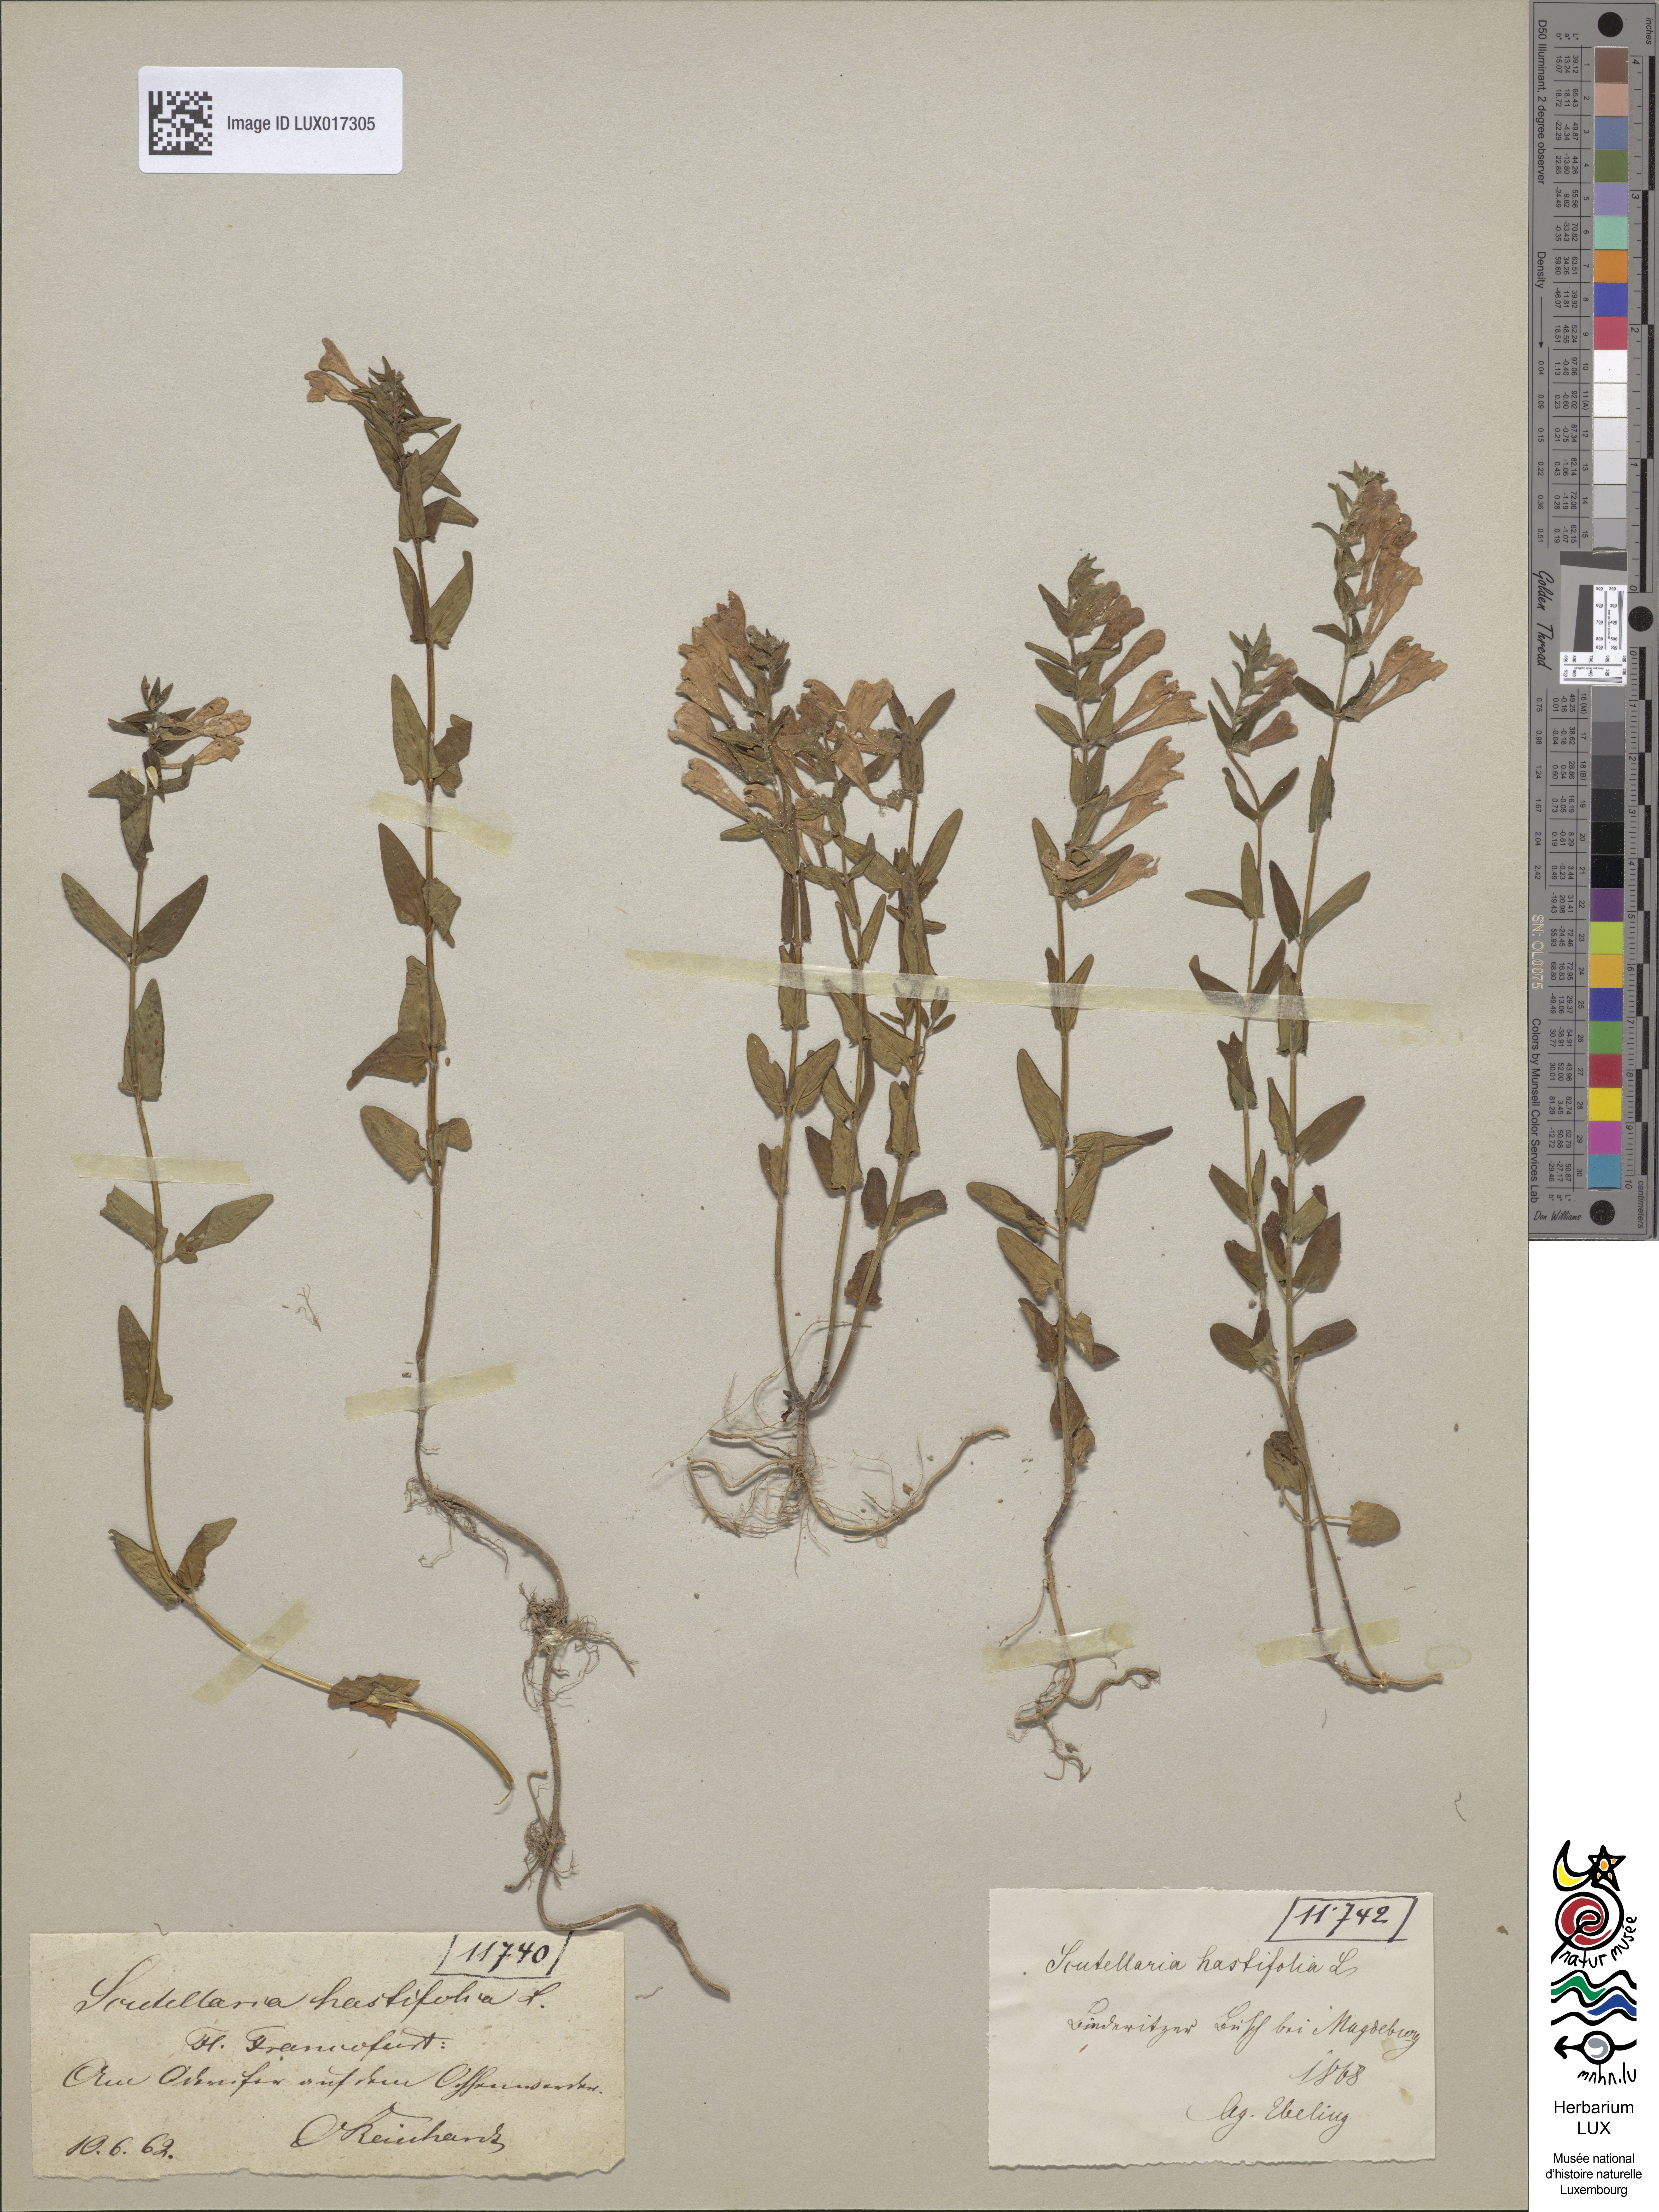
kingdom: Plantae
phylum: Tracheophyta
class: Magnoliopsida
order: Lamiales
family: Lamiaceae
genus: Scutellaria
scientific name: Scutellaria hastifolia
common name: Norfolk skullcap
